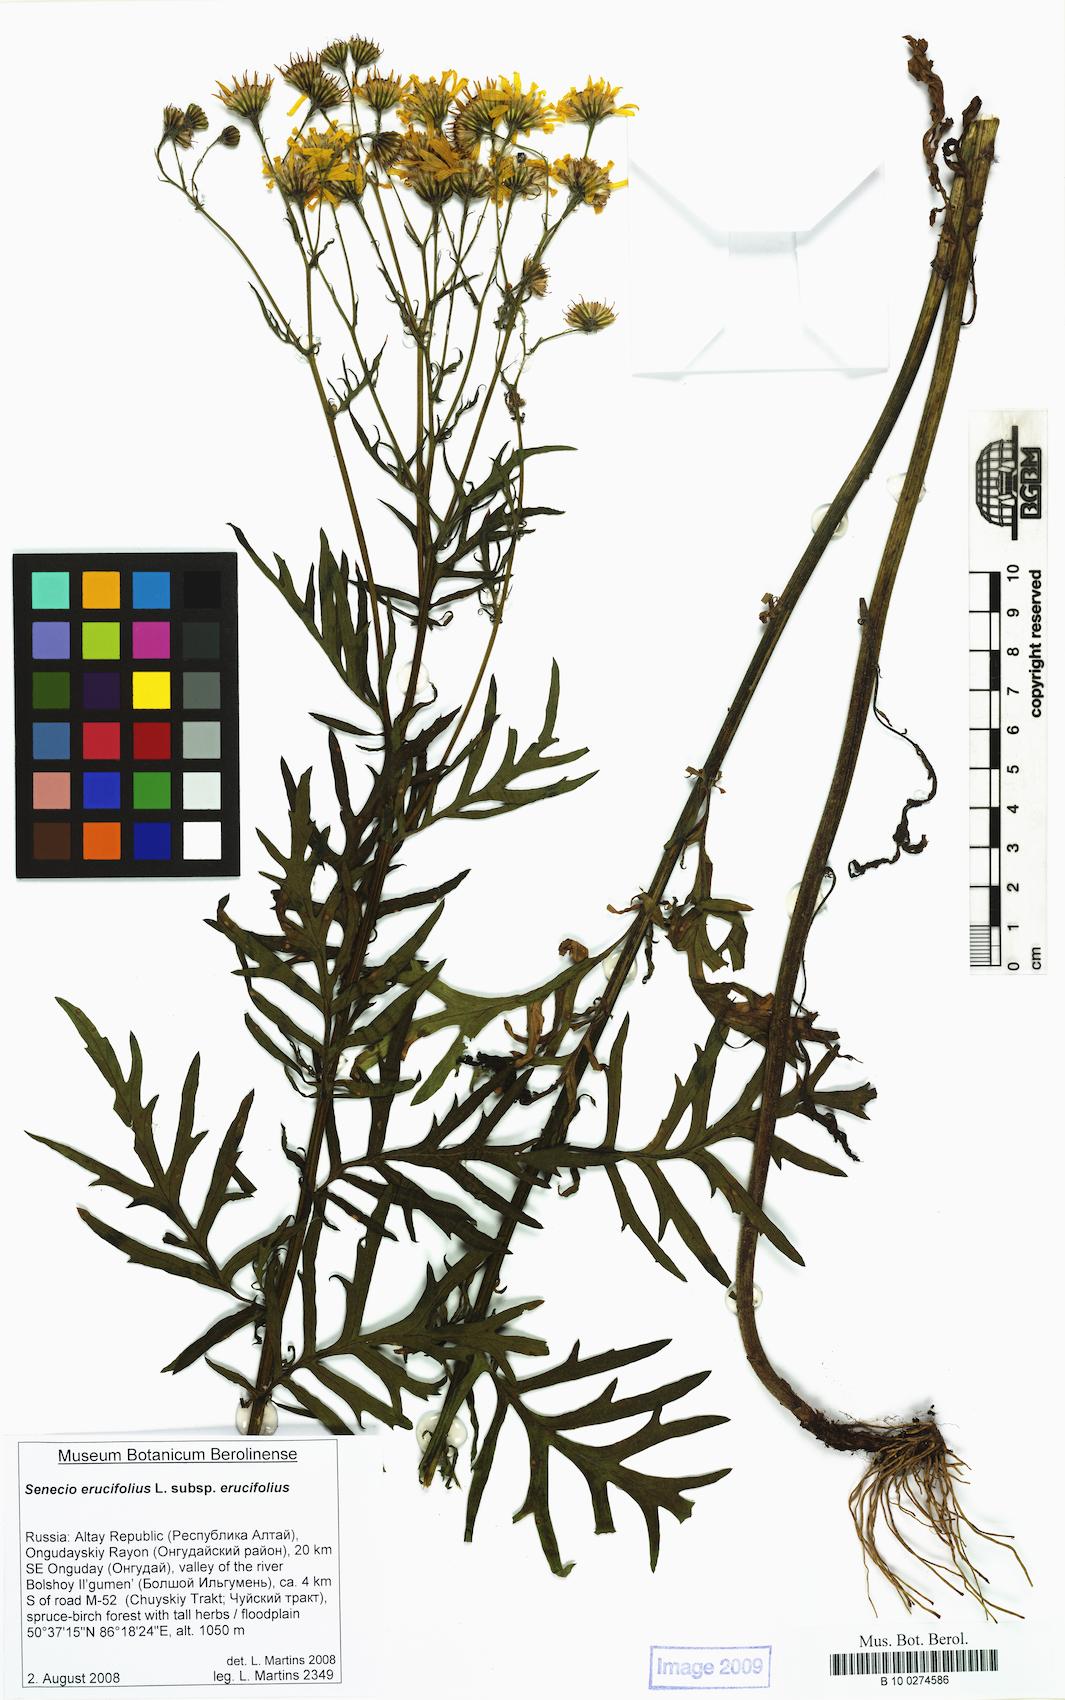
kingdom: Plantae
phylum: Tracheophyta
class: Magnoliopsida
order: Asterales
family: Asteraceae
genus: Jacobaea
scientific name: Jacobaea erucifolia
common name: Hoary ragwort
